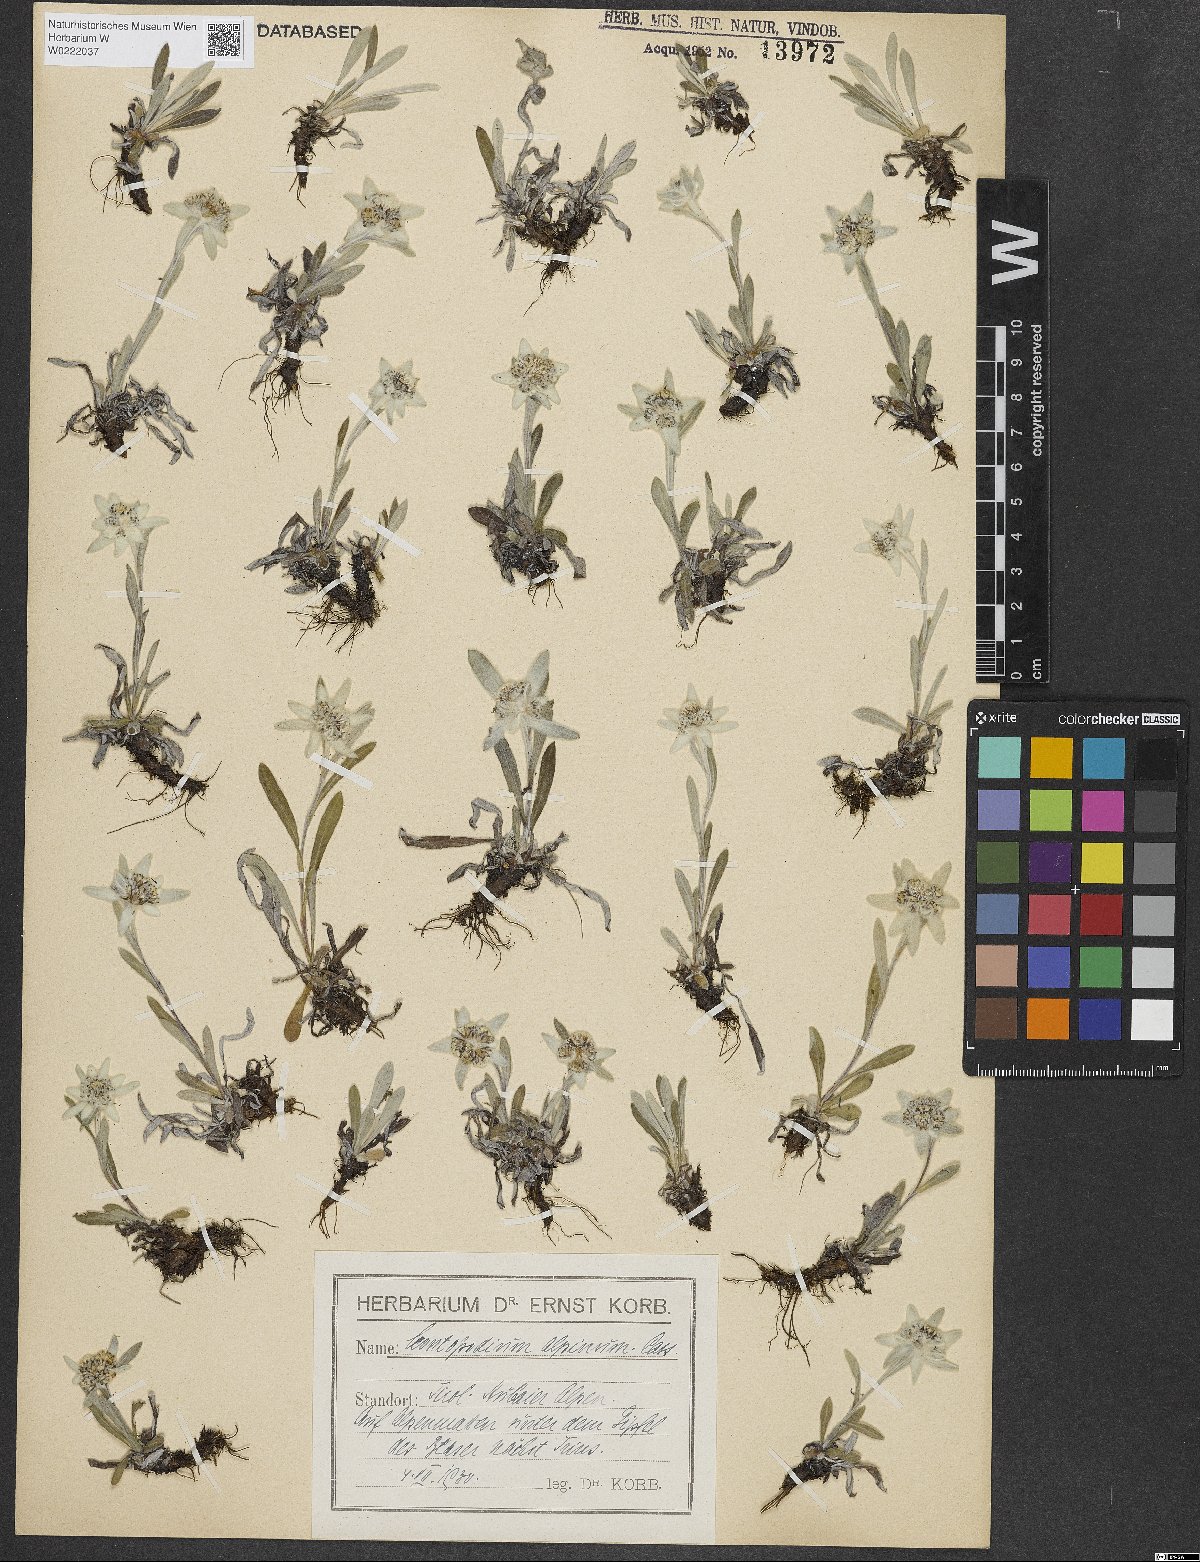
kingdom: Plantae
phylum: Tracheophyta
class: Magnoliopsida
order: Asterales
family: Asteraceae
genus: Leontopodium
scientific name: Leontopodium nivale
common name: Edelweiss
